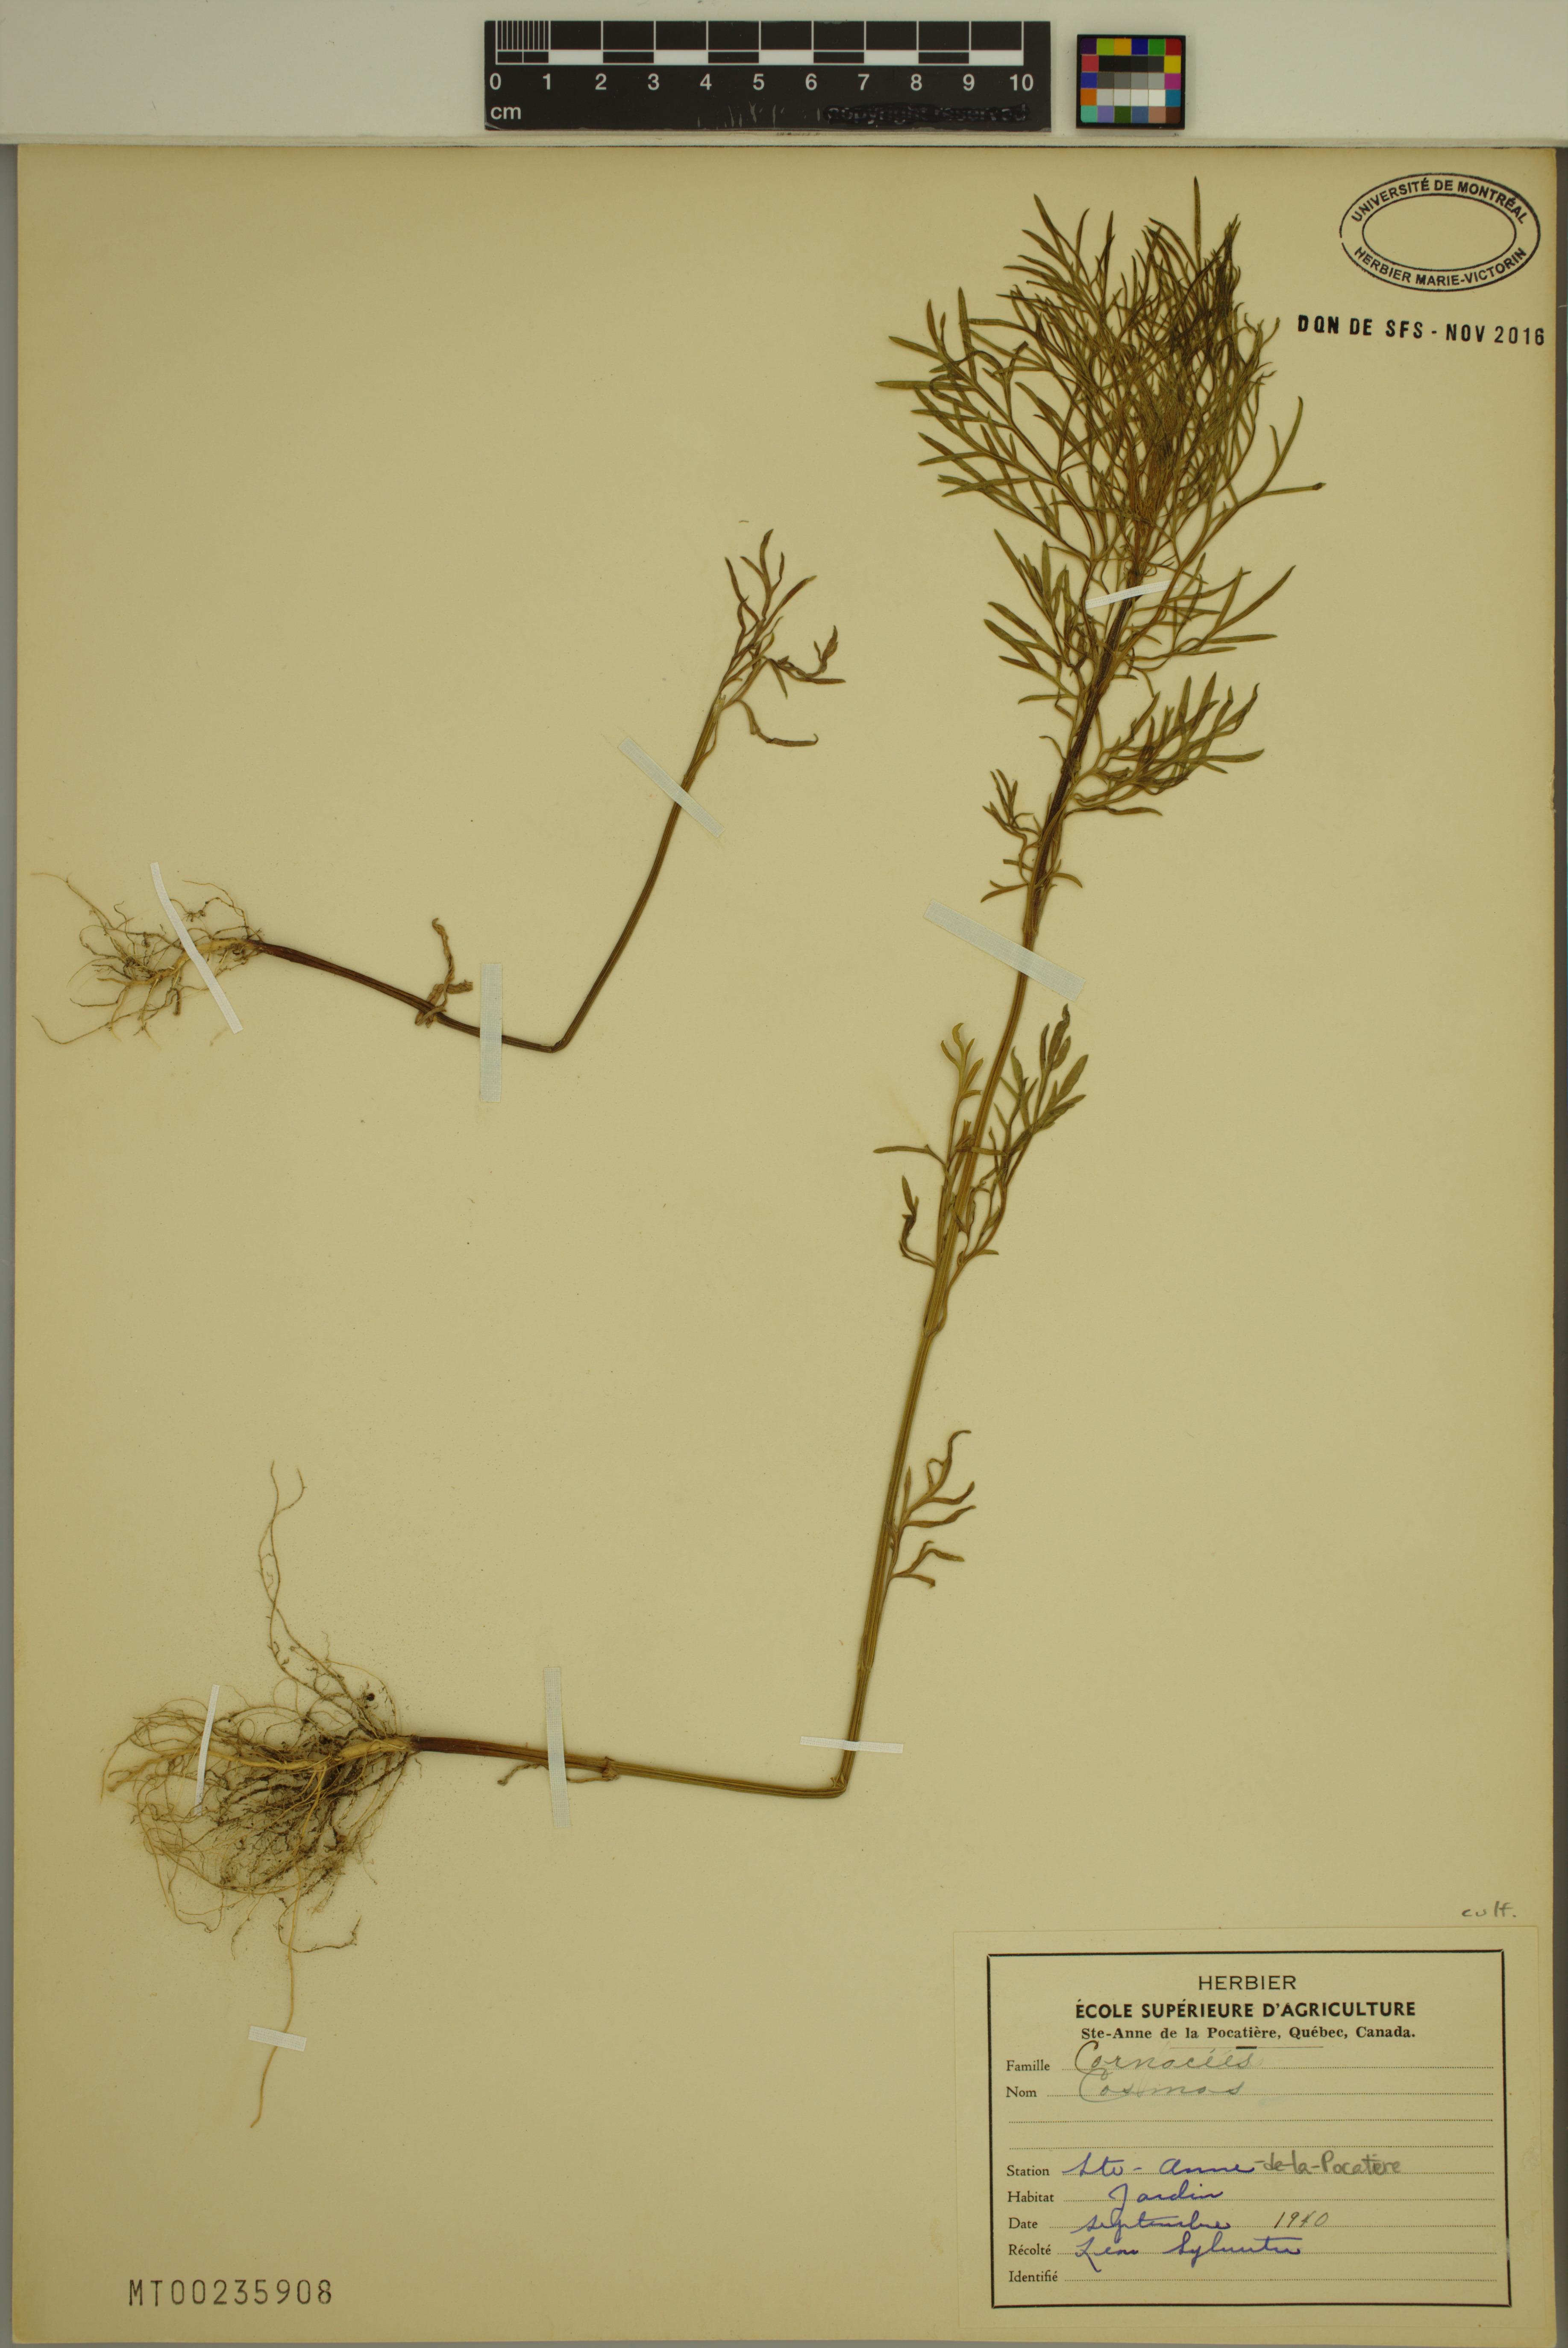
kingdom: Plantae
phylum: Tracheophyta
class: Magnoliopsida
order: Asterales
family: Asteraceae
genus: Cosmos
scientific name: Cosmos
